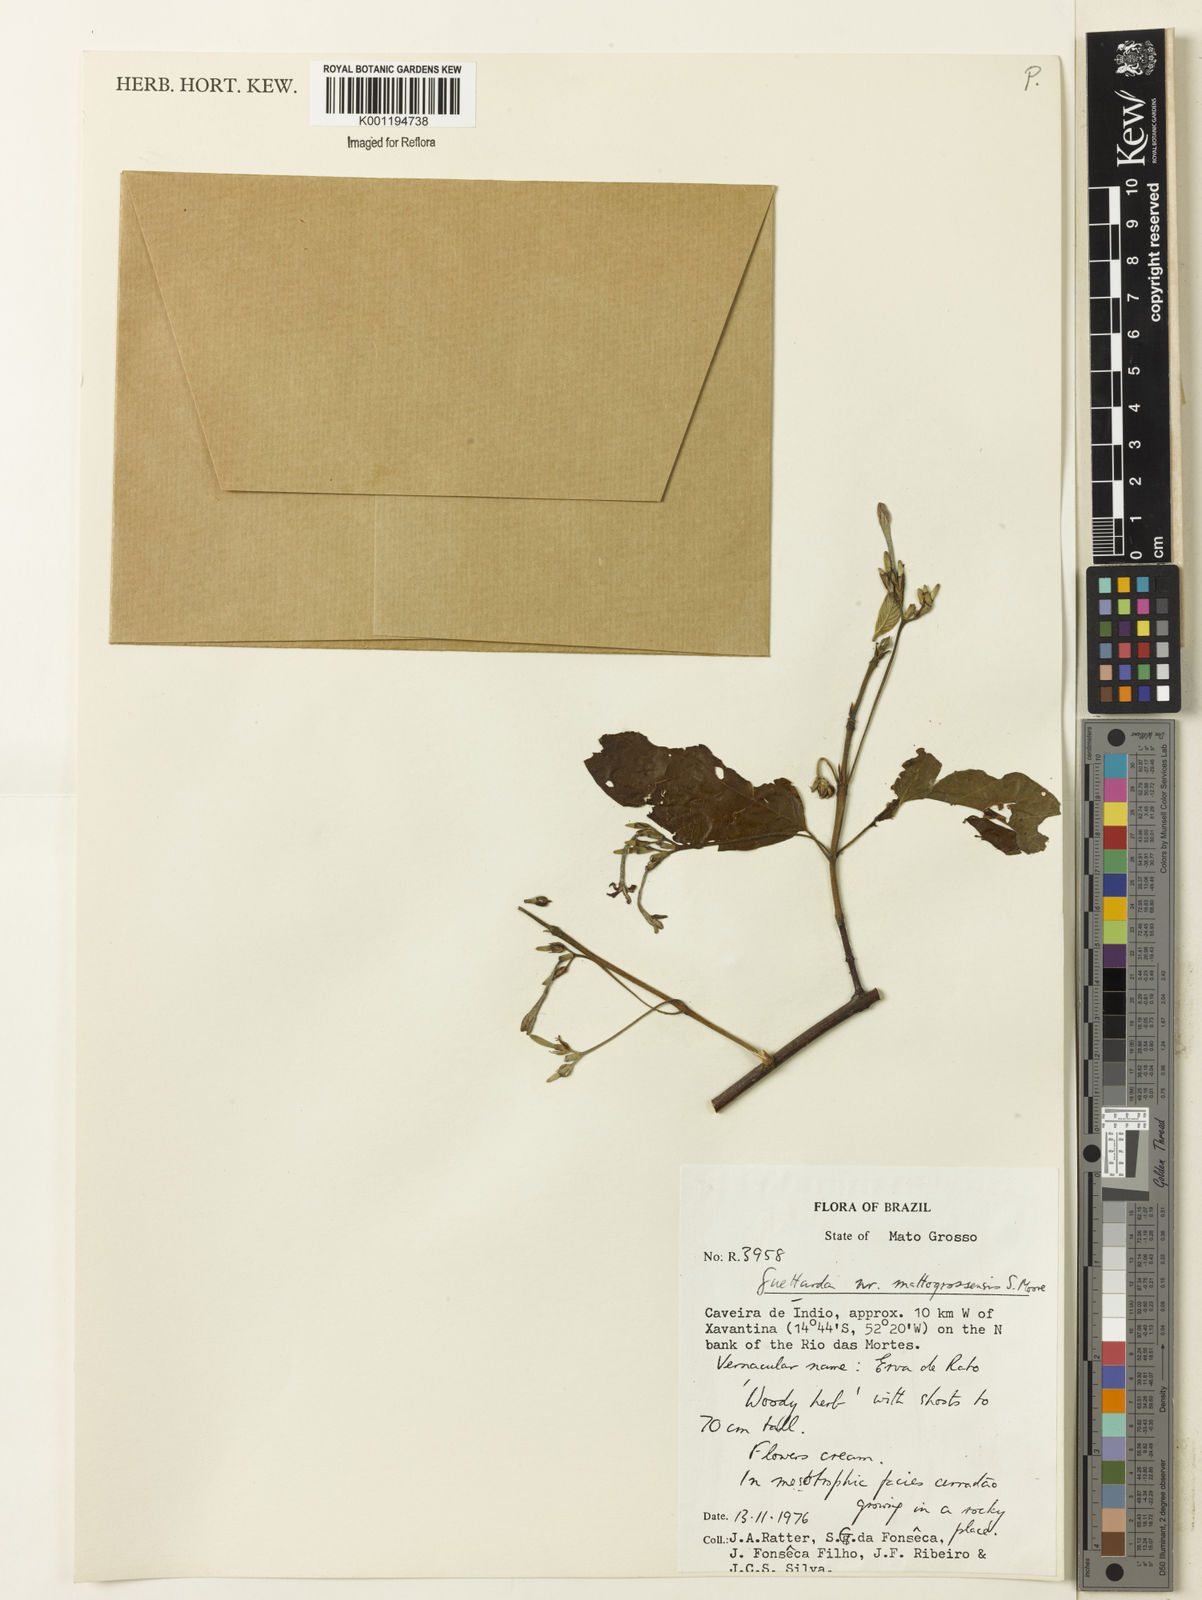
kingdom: Plantae
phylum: Tracheophyta
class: Magnoliopsida
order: Gentianales
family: Rubiaceae
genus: Guettarda
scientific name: Guettarda mattogrossensis
